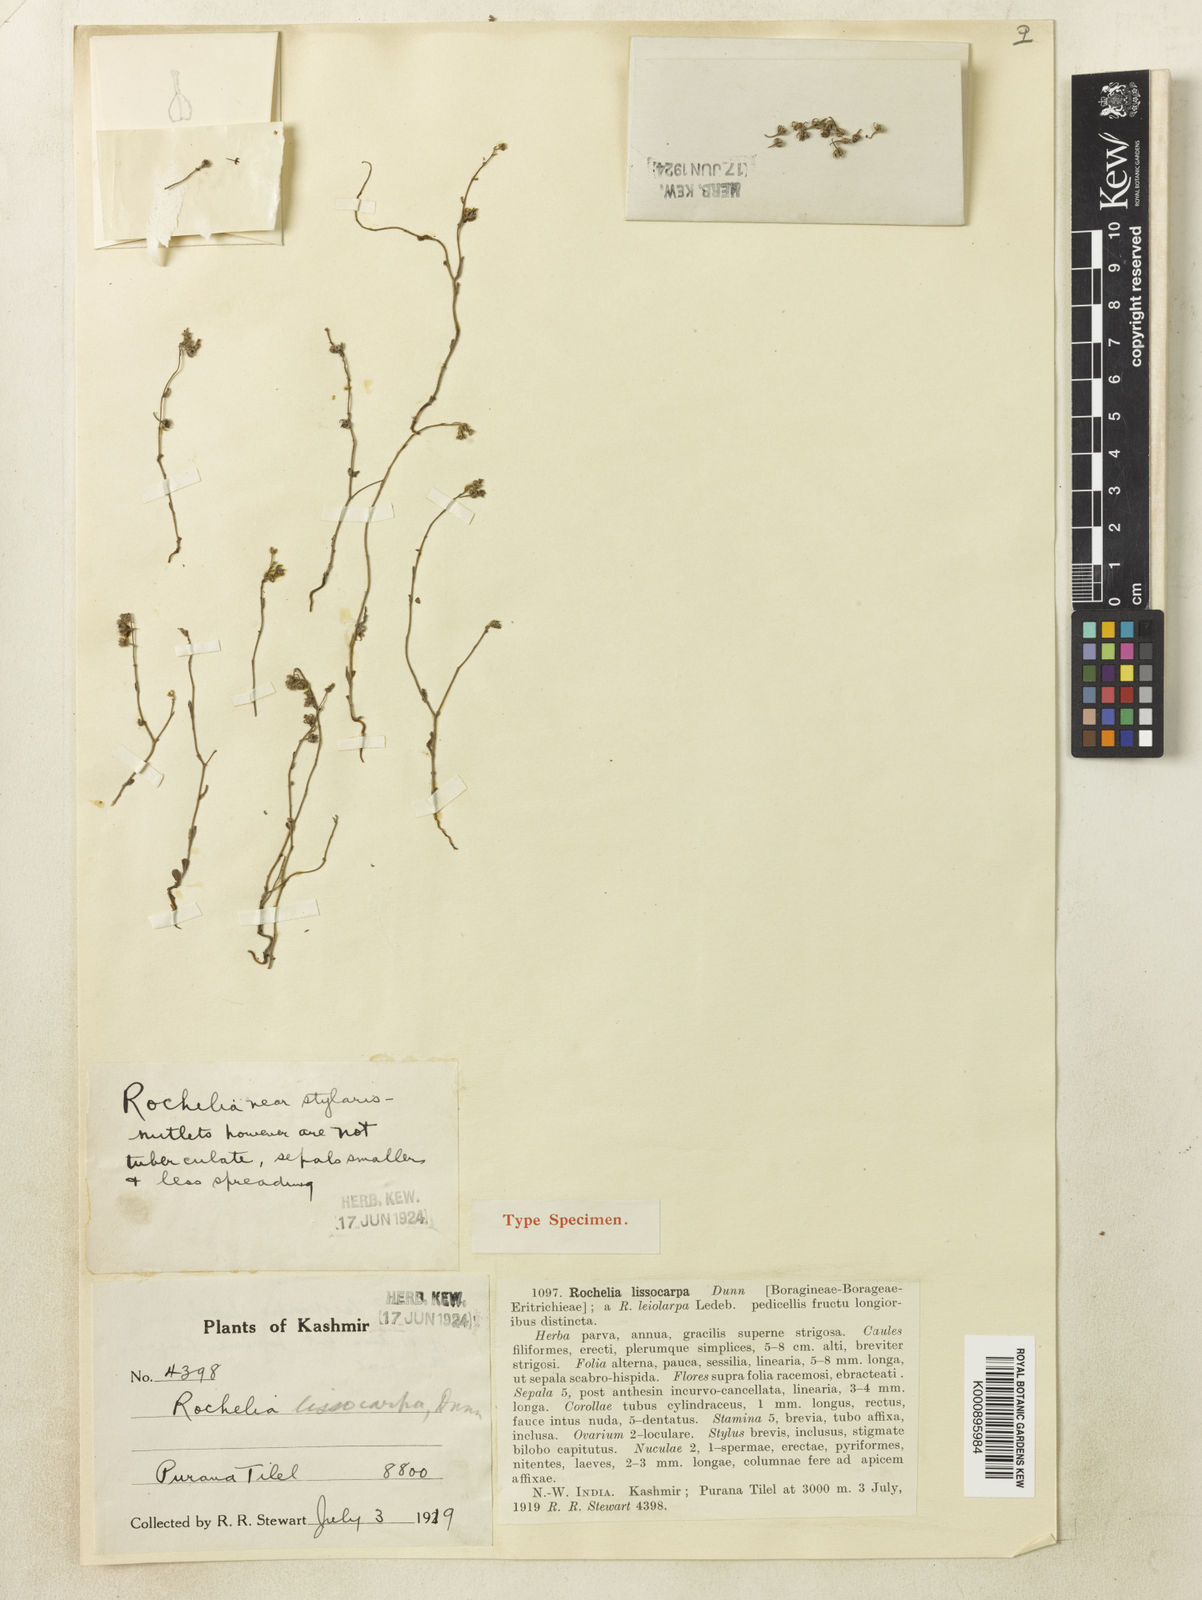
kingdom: Plantae
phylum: Tracheophyta
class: Magnoliopsida
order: Boraginales
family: Boraginaceae
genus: Rochelia
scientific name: Rochelia
